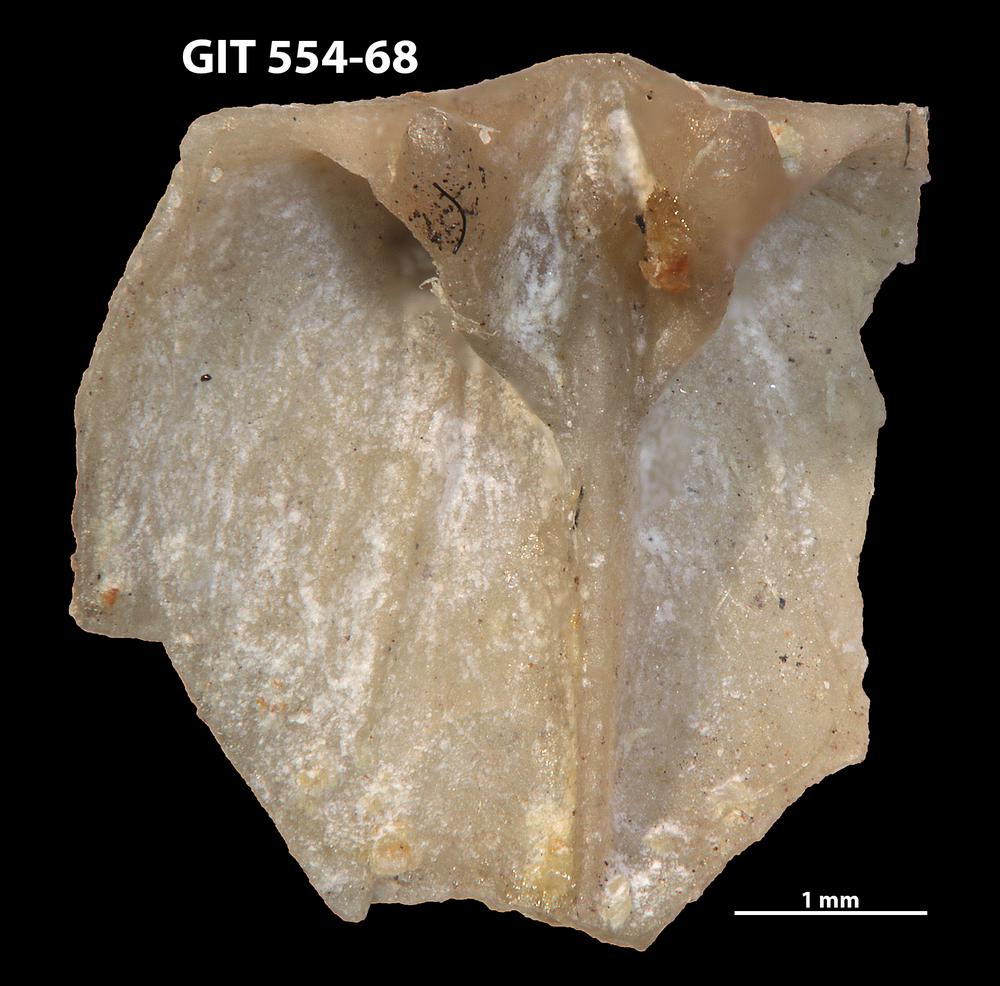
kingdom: Animalia
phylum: Brachiopoda
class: Rhynchonellata
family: Linoporellidae
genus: Linoporella
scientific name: Linoporella Orthis punctata
